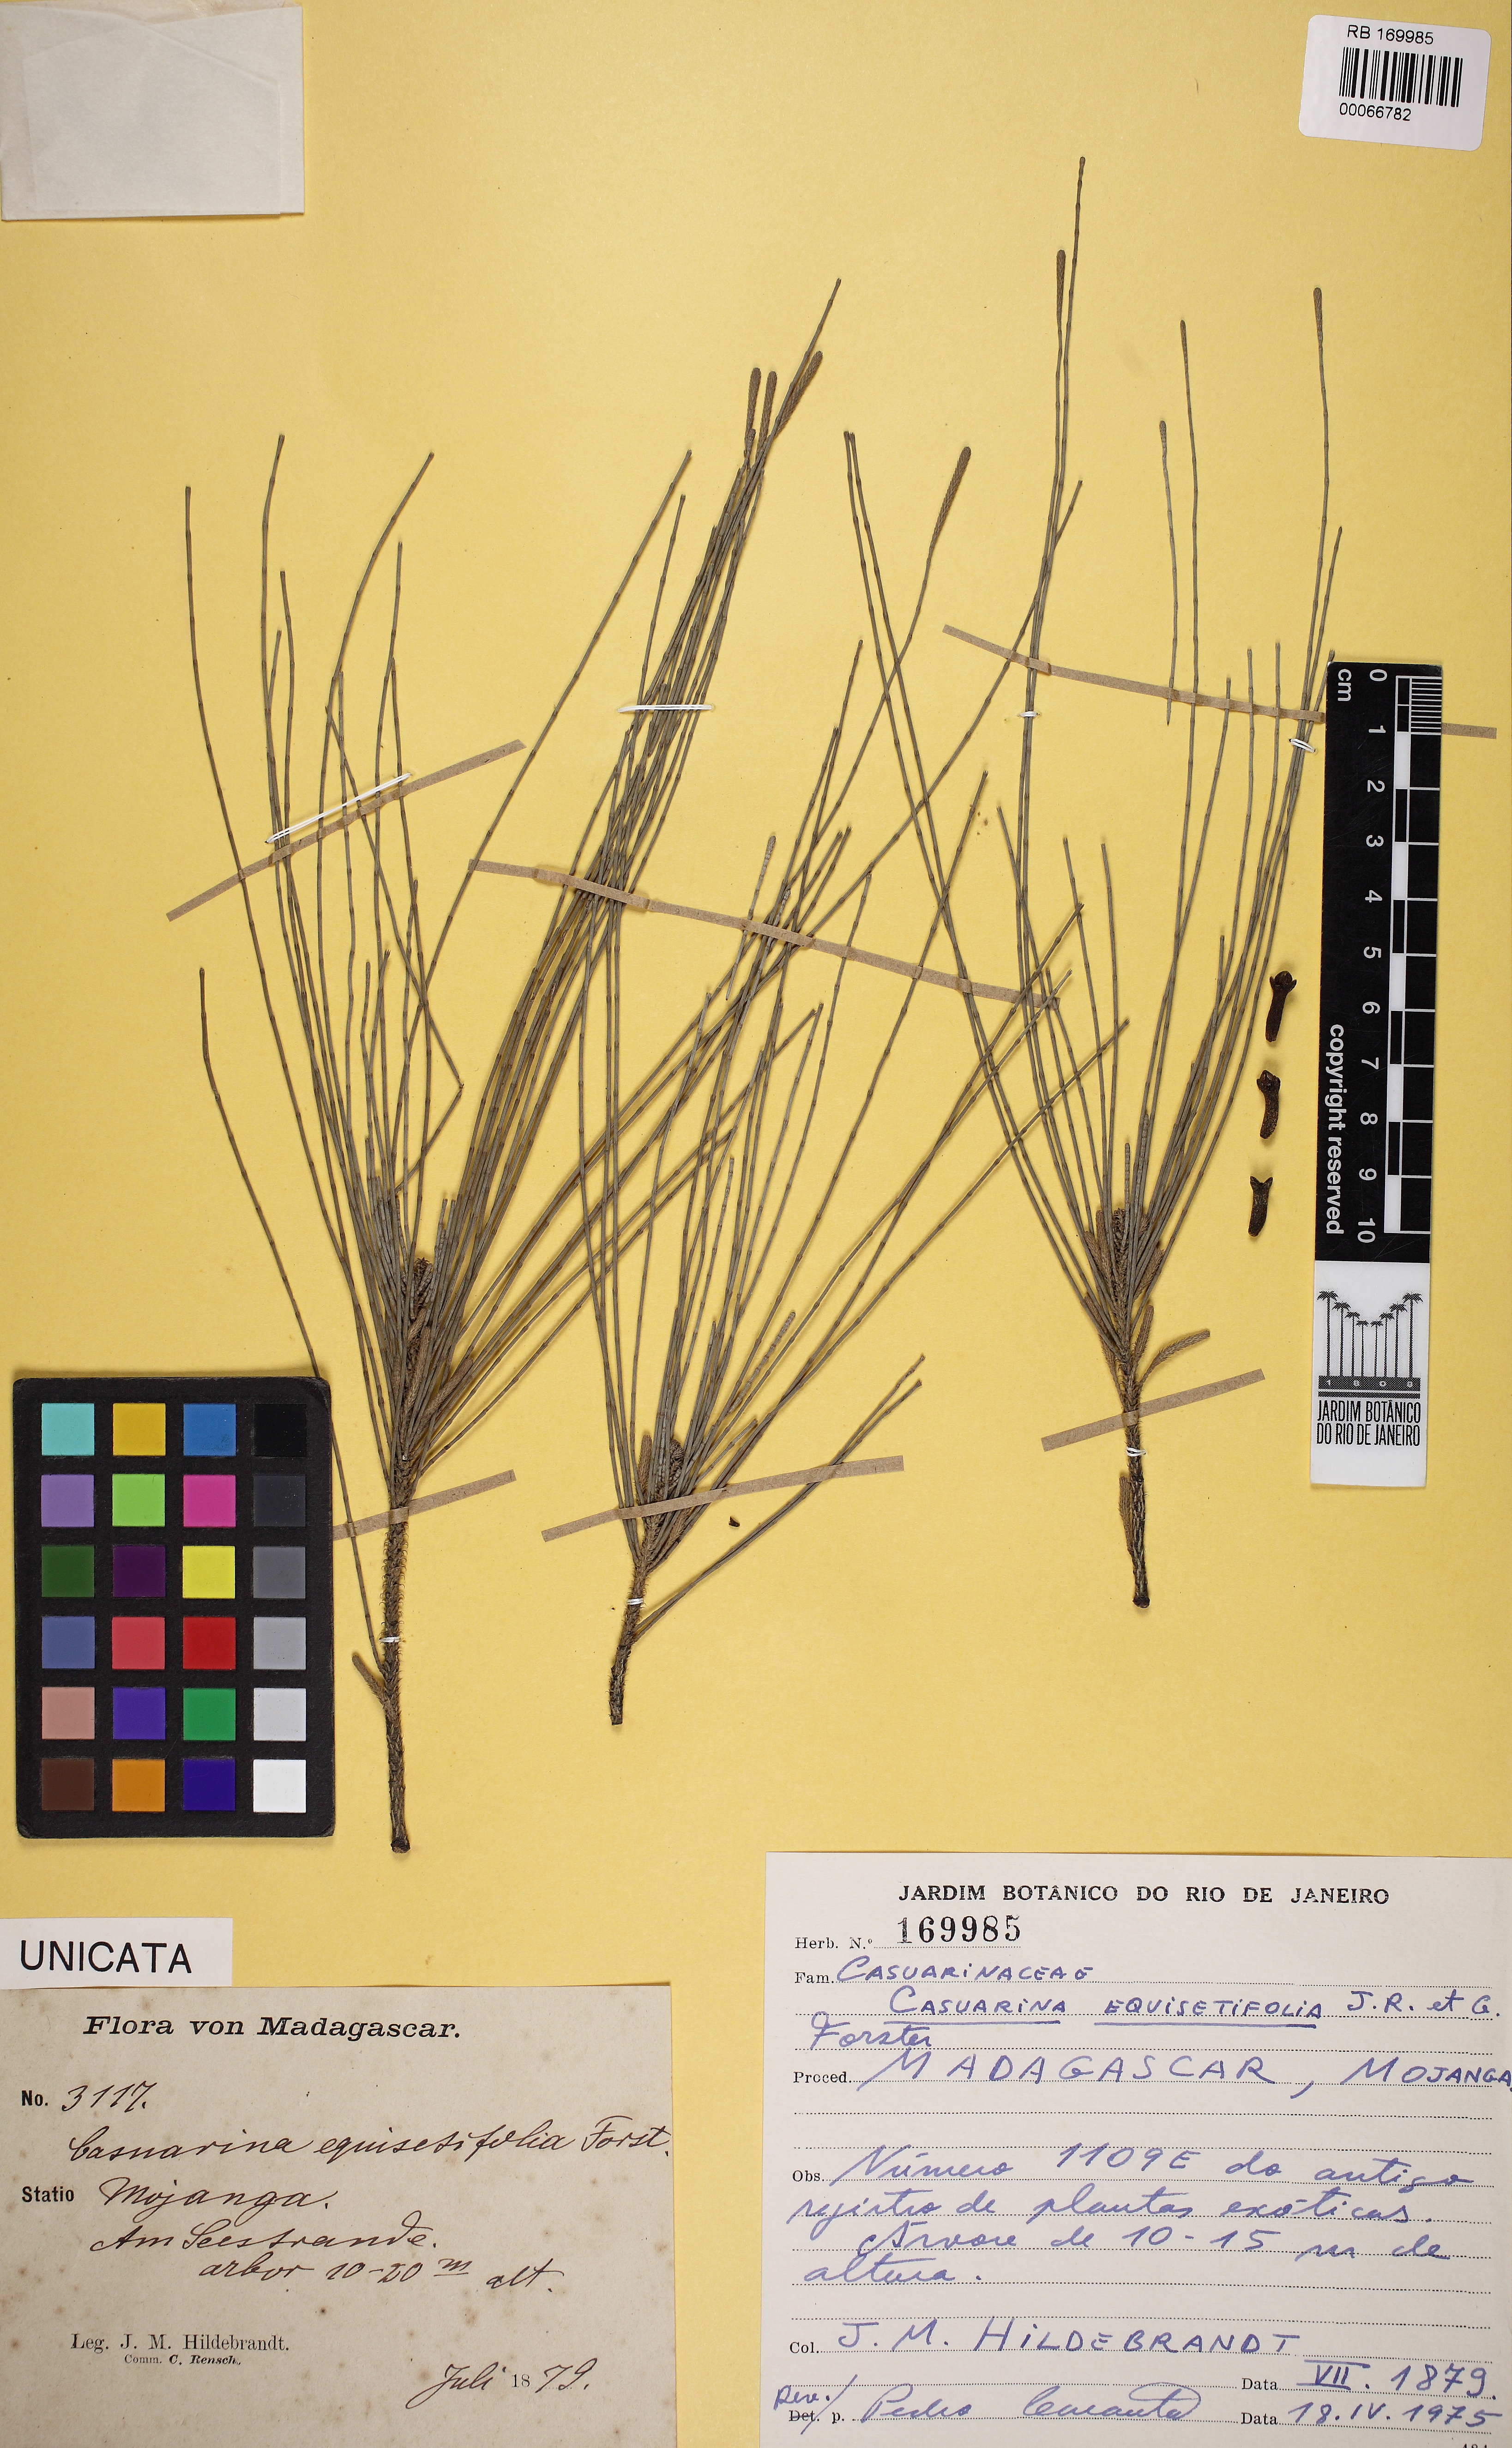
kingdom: Plantae
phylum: Tracheophyta
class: Magnoliopsida
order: Fagales
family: Casuarinaceae
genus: Casuarina
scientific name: Casuarina equisetifolia
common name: Beach sheoak
